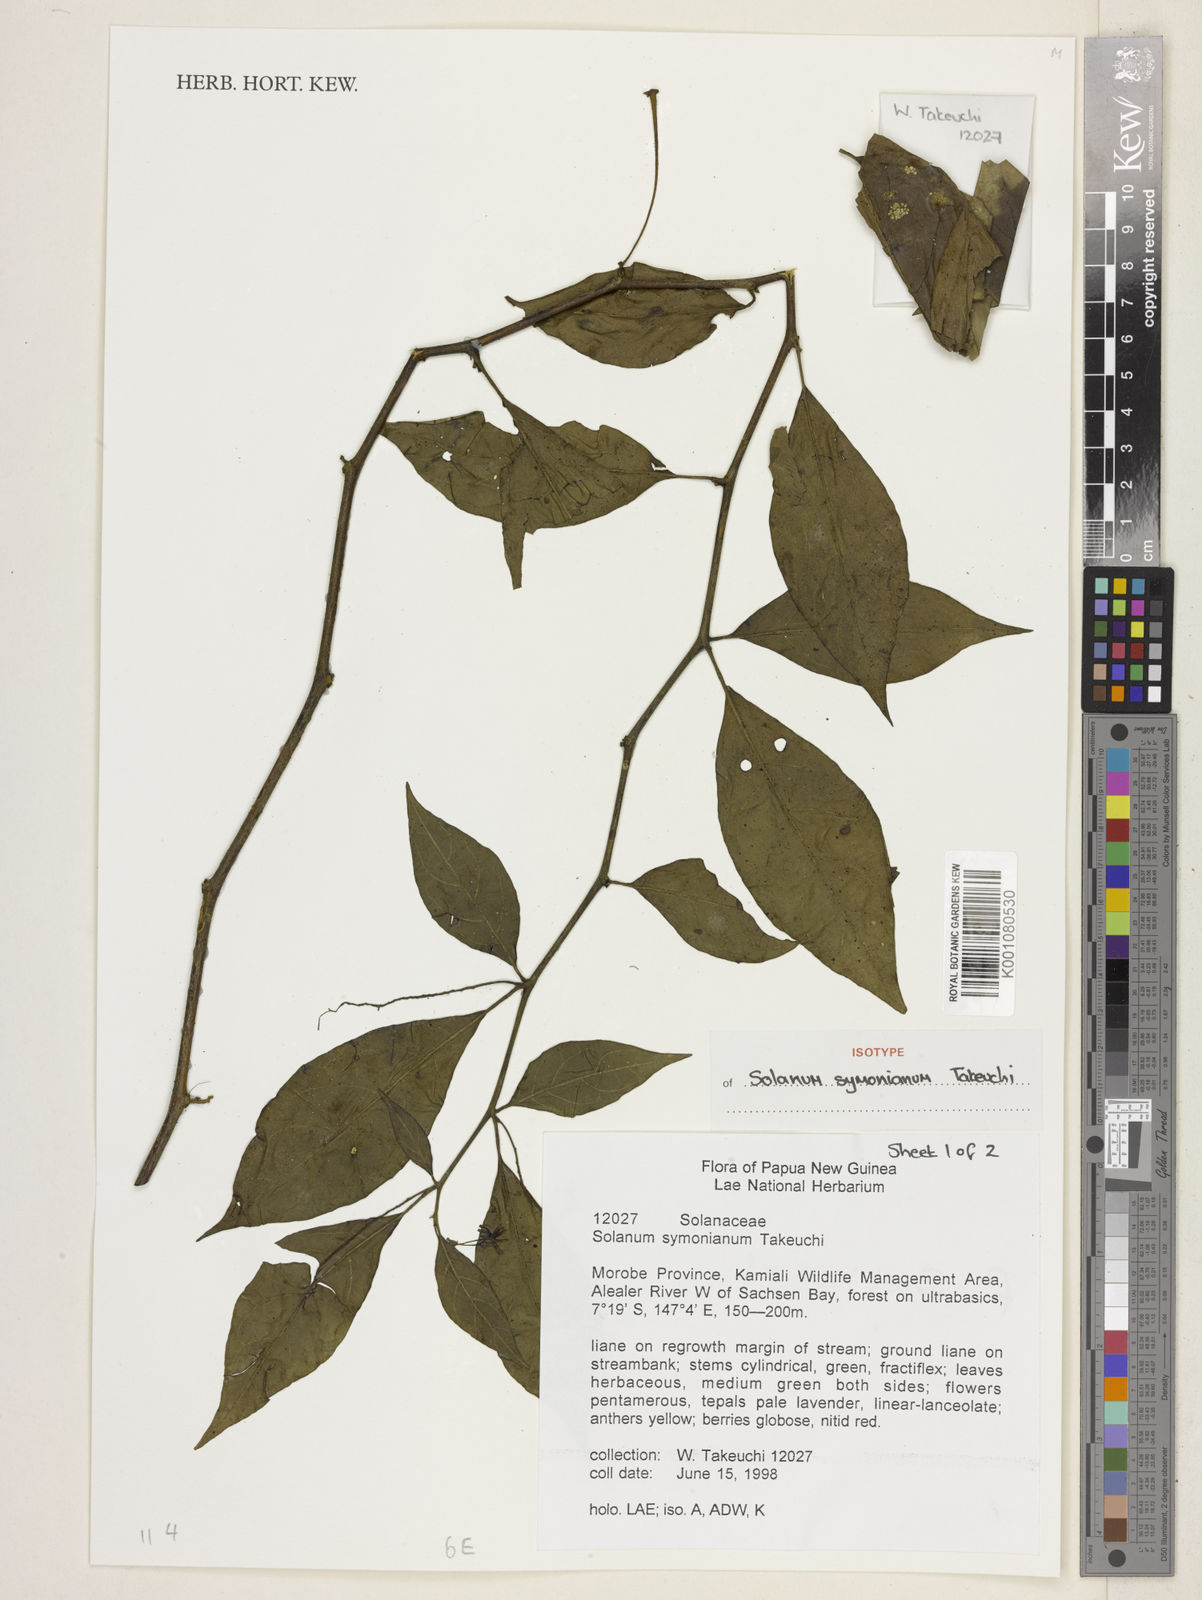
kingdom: Plantae
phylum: Tracheophyta
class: Magnoliopsida
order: Solanales
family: Solanaceae
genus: Solanum
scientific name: Solanum symonianum
